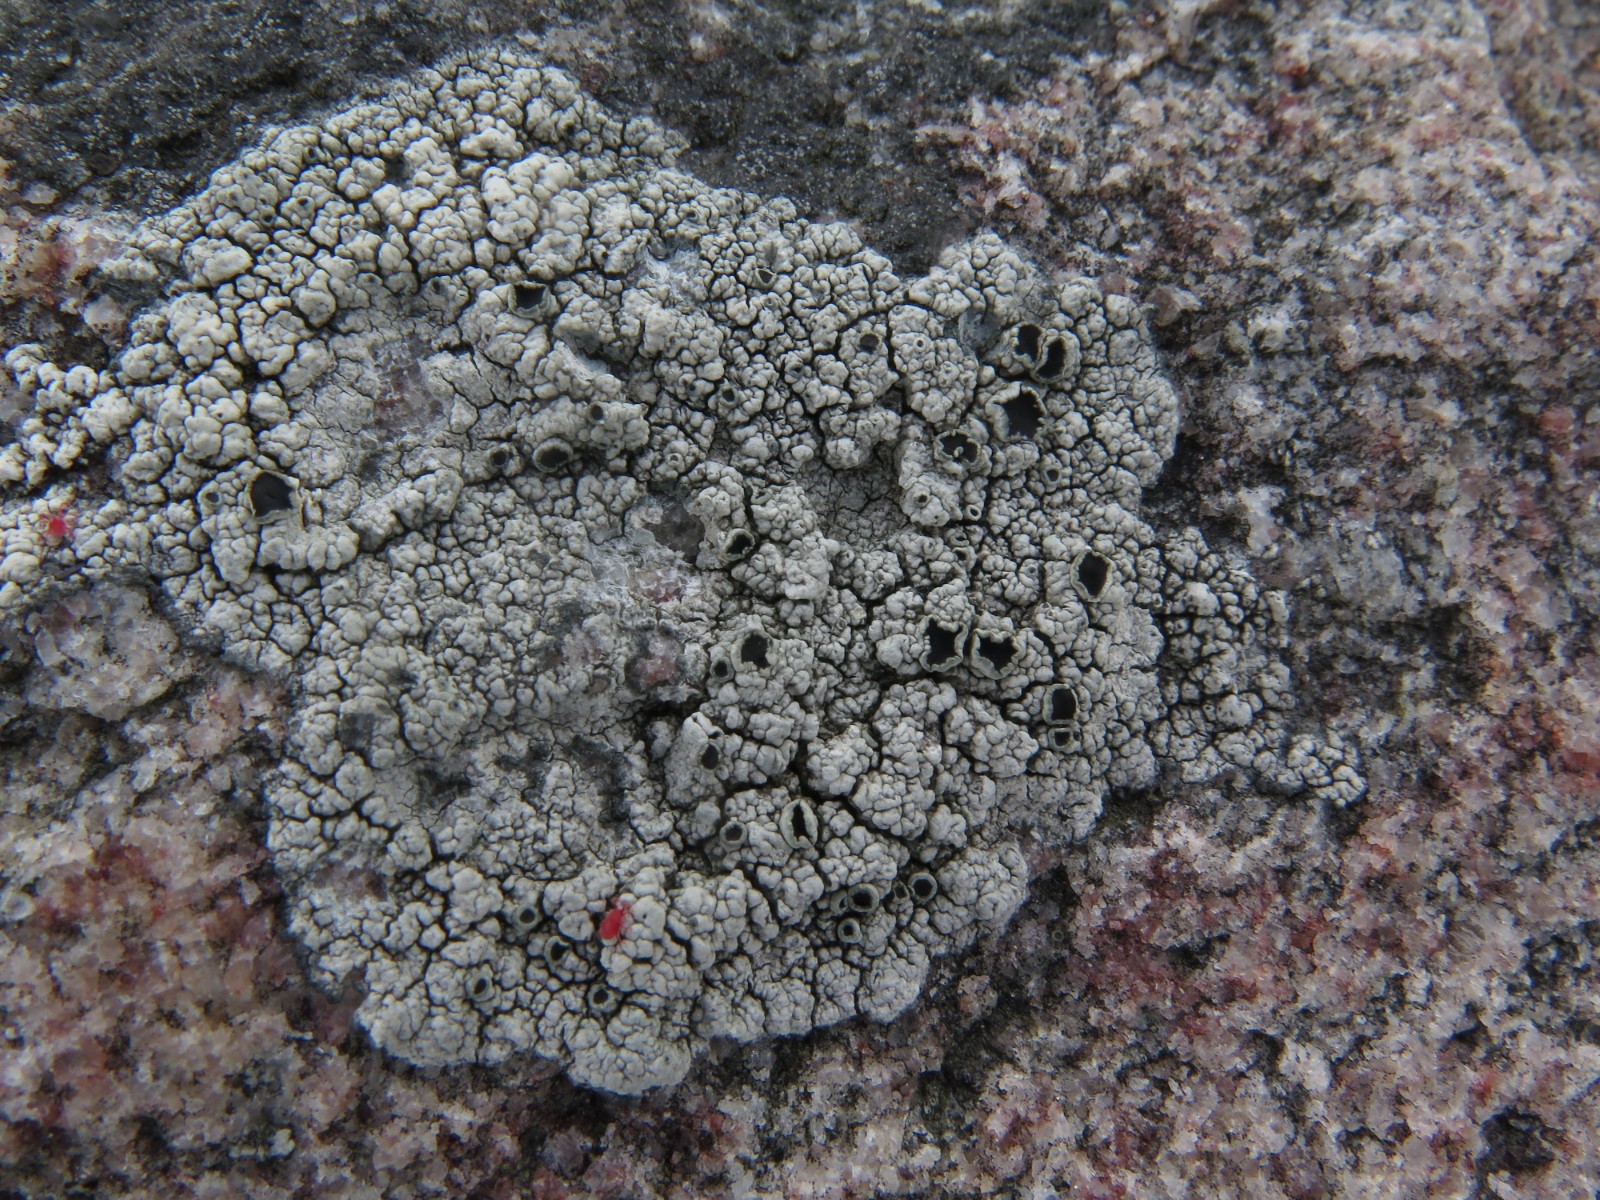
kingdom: Fungi
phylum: Ascomycota
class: Lecanoromycetes
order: Lecanorales
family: Tephromelataceae
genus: Tephromela
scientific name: Tephromela atra
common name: sortfrugtet kantskivelav
